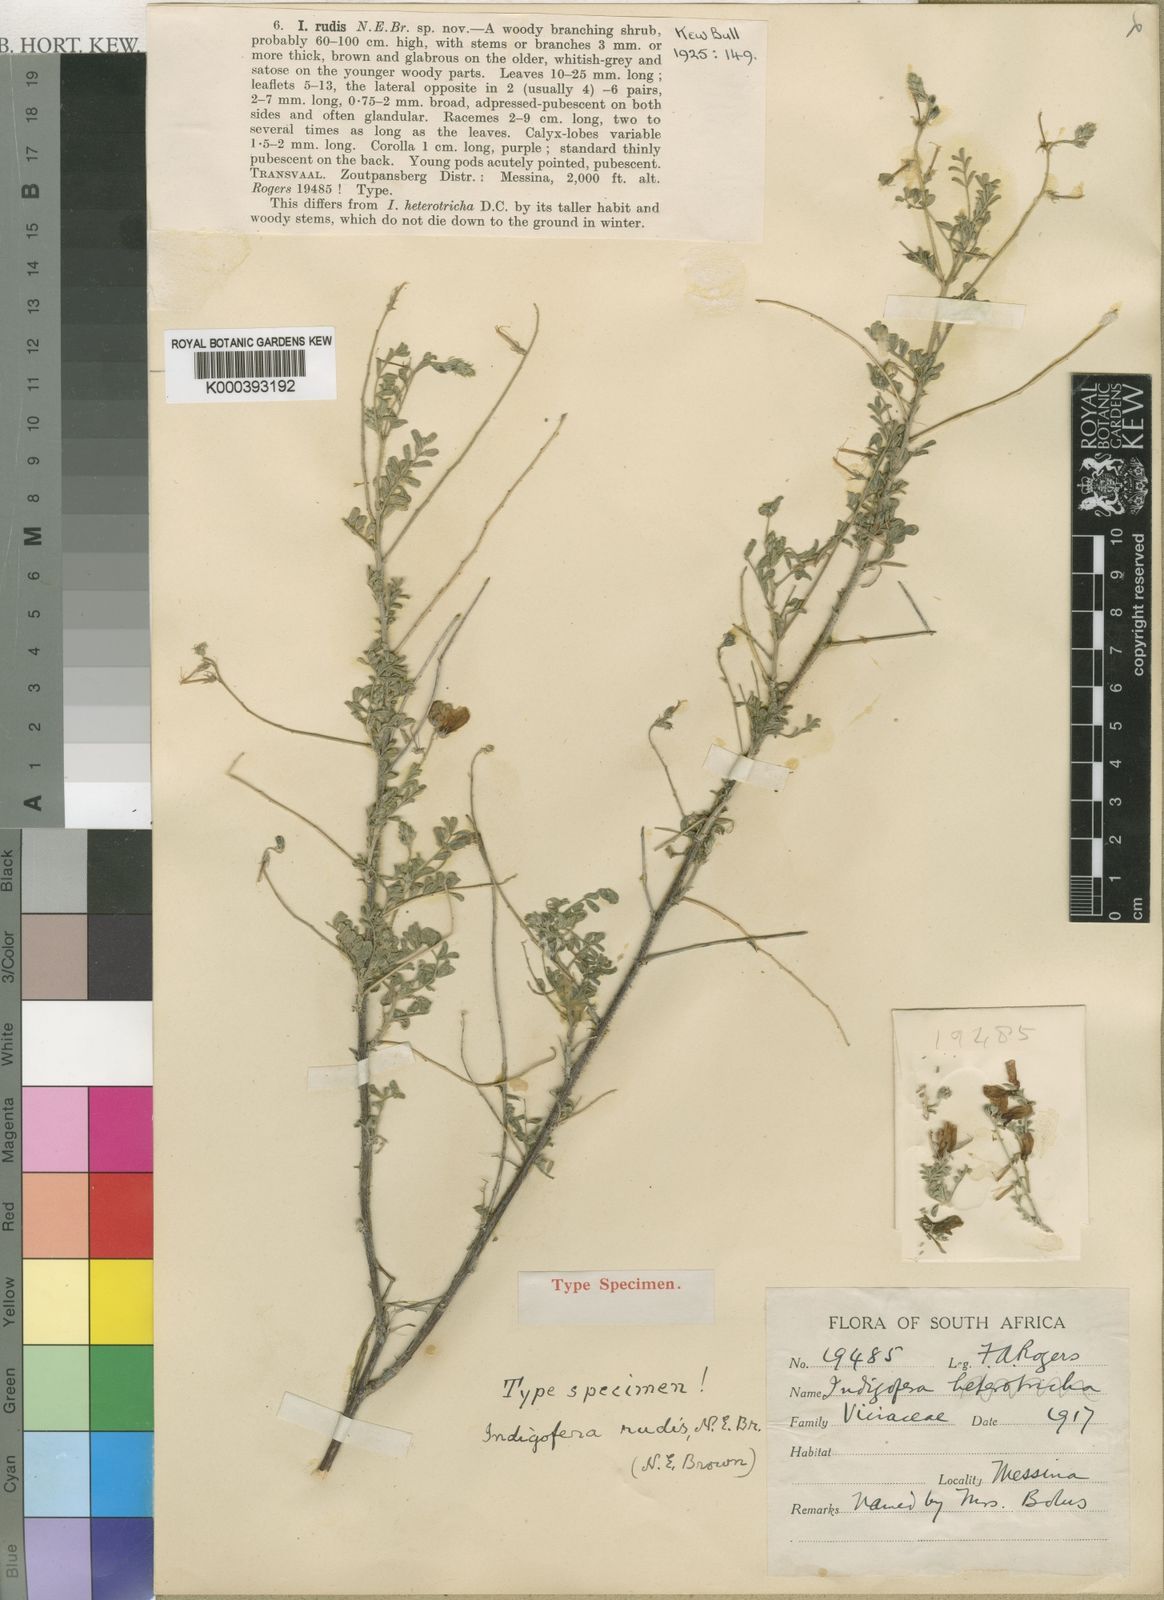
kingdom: Plantae
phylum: Tracheophyta
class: Magnoliopsida
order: Fabales
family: Fabaceae
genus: Indigofera
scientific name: Indigofera heterotricha
